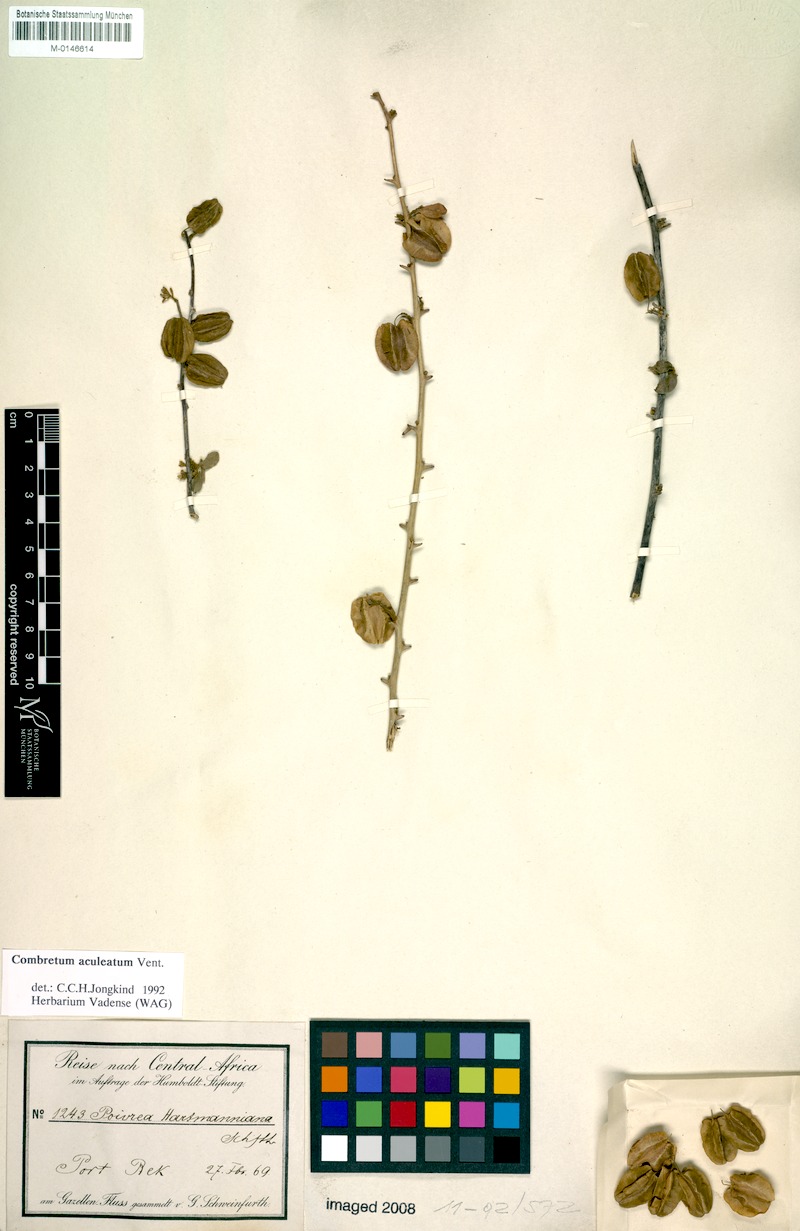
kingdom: Plantae
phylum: Tracheophyta
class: Magnoliopsida
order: Myrtales
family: Combretaceae
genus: Combretum
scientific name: Combretum aculeatum
